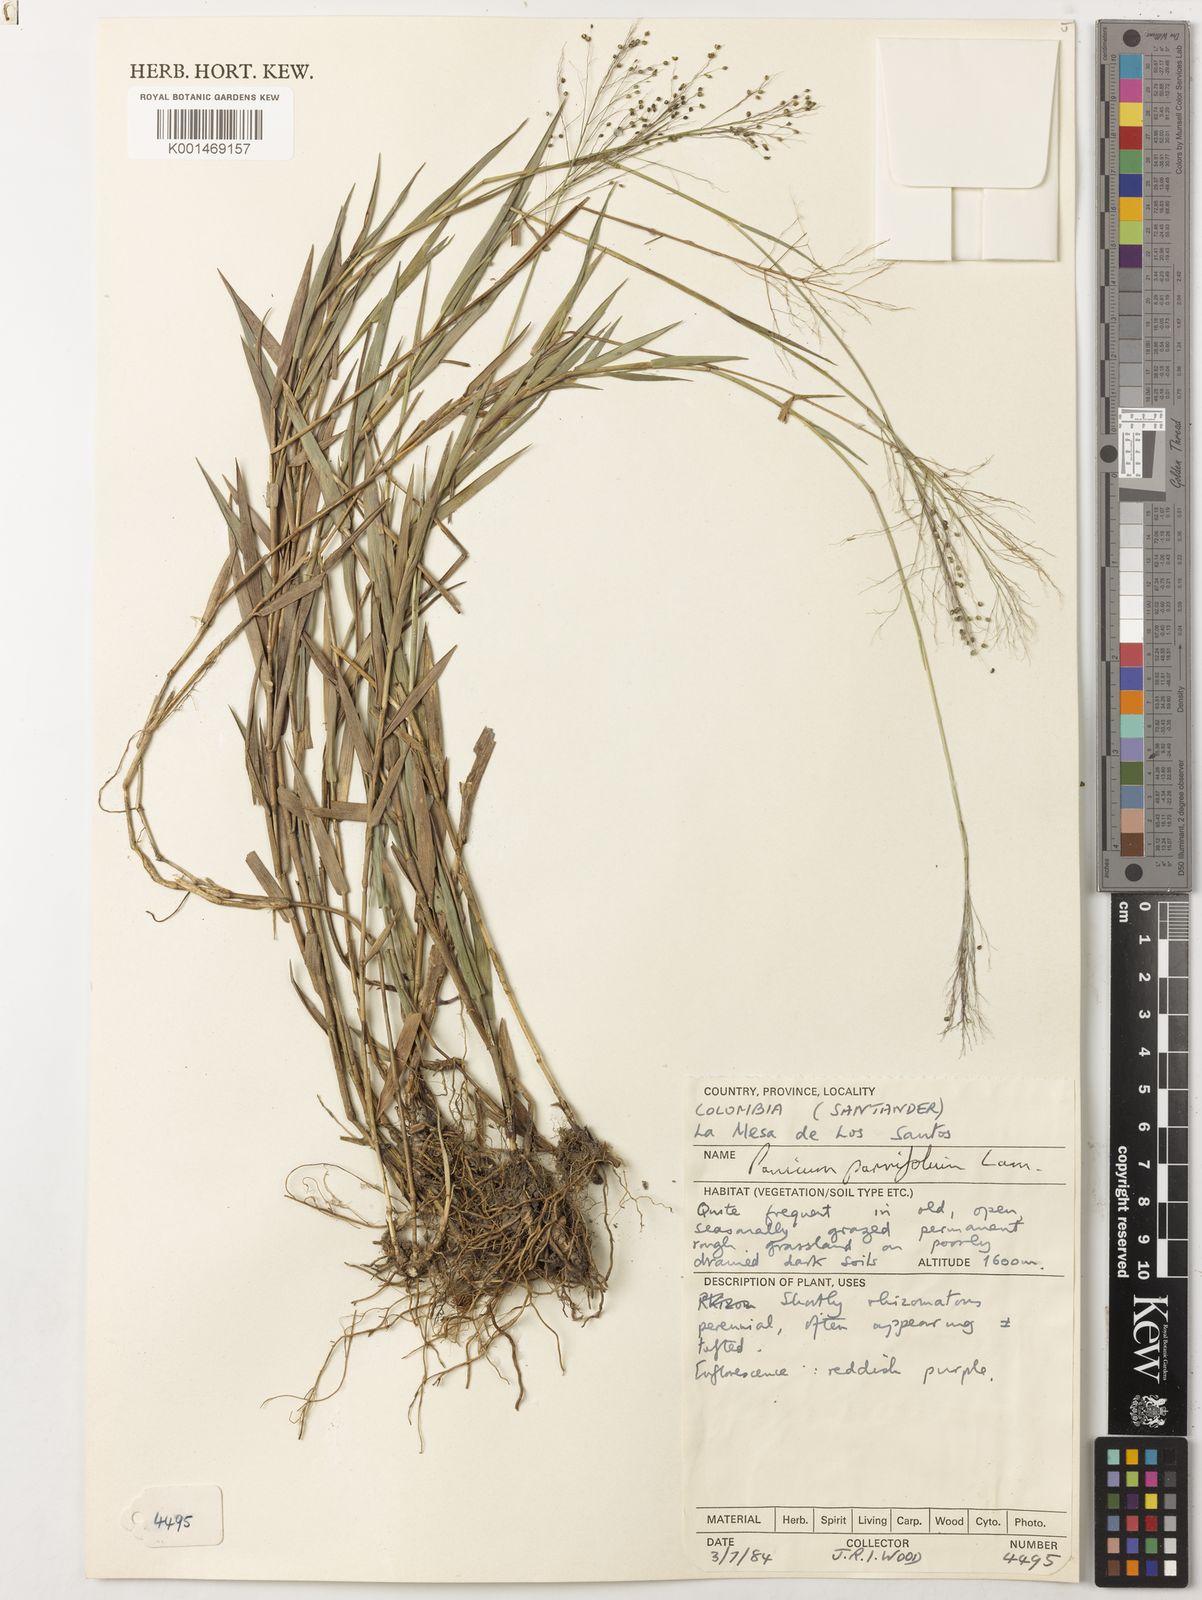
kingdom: Plantae
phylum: Tracheophyta
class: Liliopsida
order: Poales
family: Poaceae
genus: Trichanthecium
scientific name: Trichanthecium parvifolium
